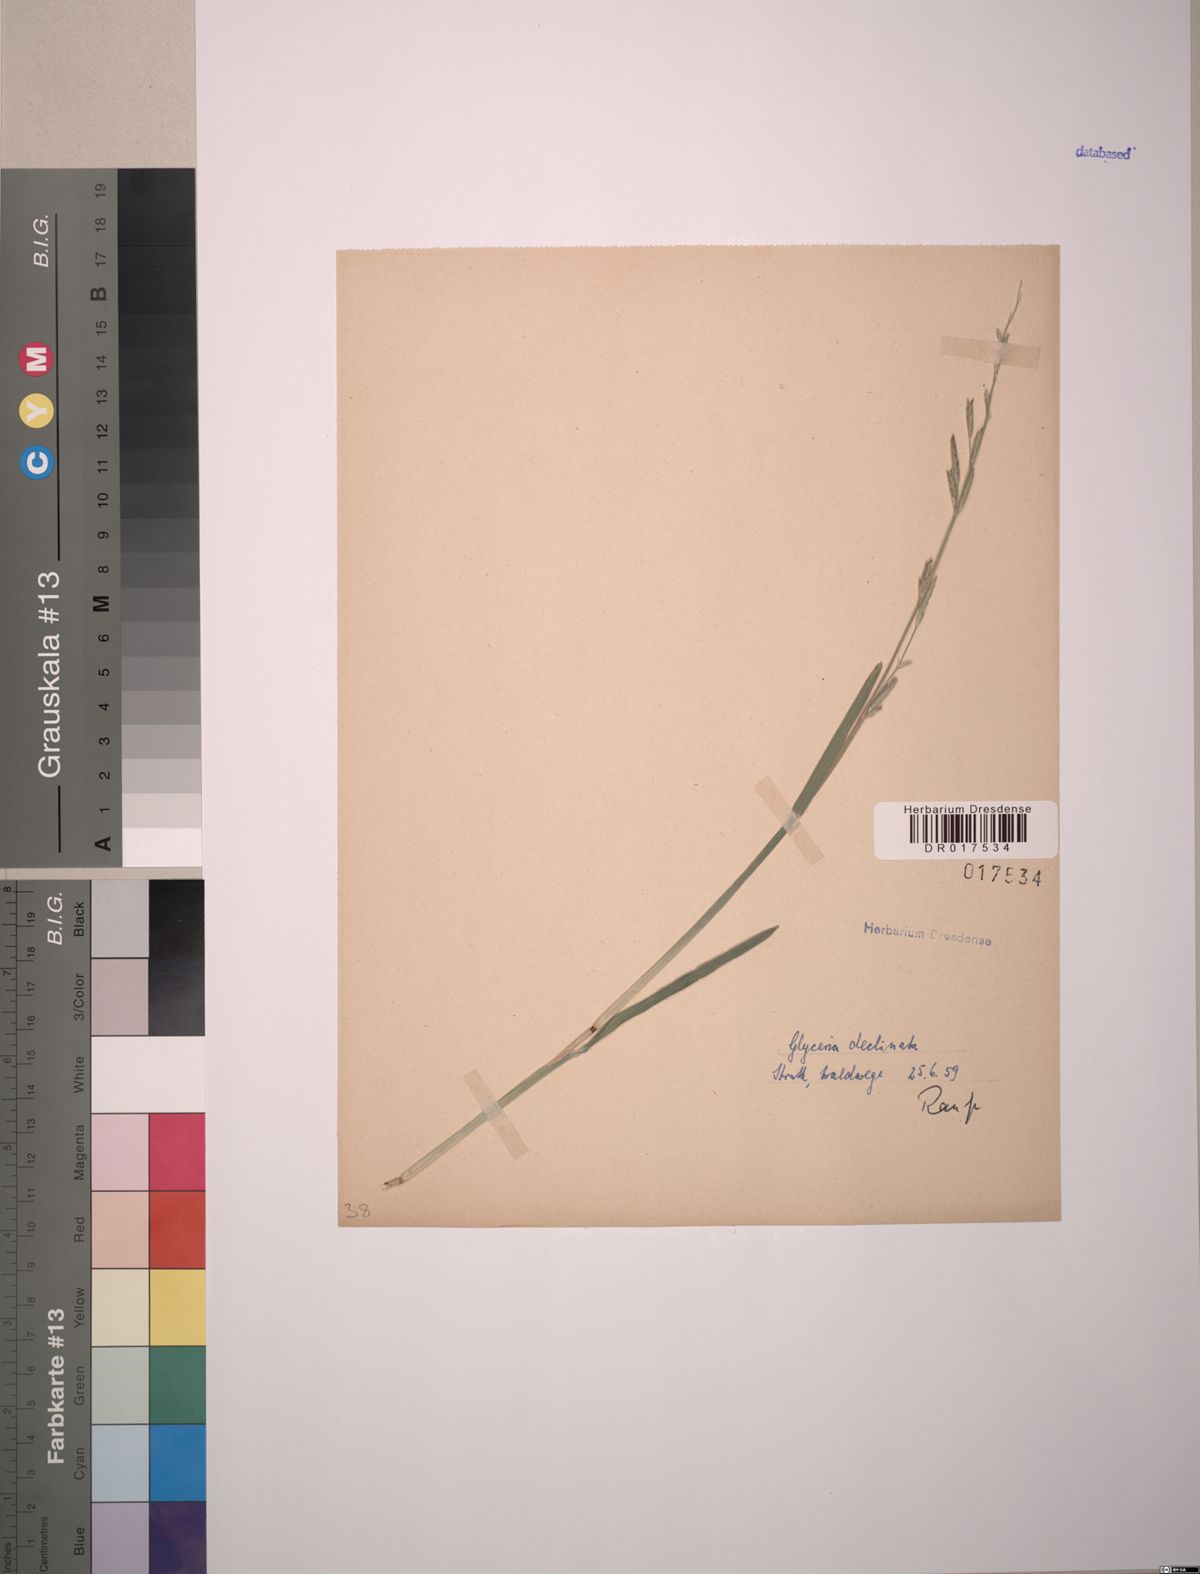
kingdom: Plantae
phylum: Tracheophyta
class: Liliopsida
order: Poales
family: Poaceae
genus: Glyceria
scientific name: Glyceria declinata
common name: Small sweet-grass
